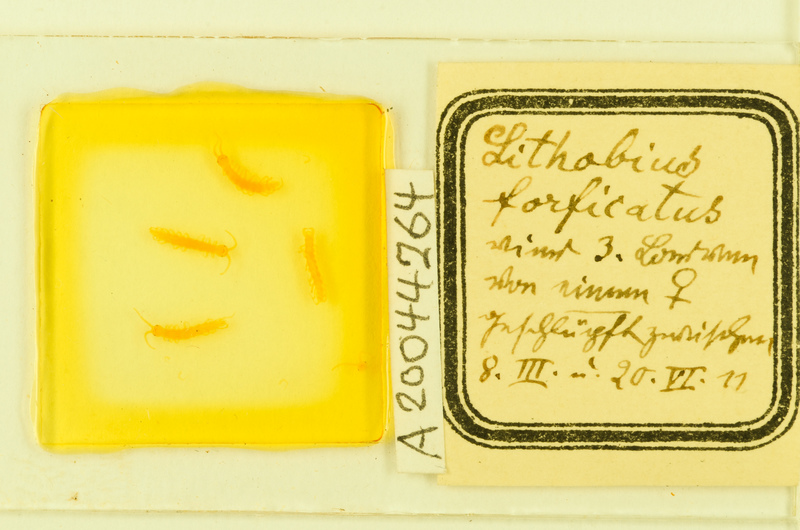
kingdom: Animalia
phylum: Arthropoda
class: Chilopoda
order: Lithobiomorpha
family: Lithobiidae
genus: Lithobius
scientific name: Lithobius forficatus
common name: Centipede
